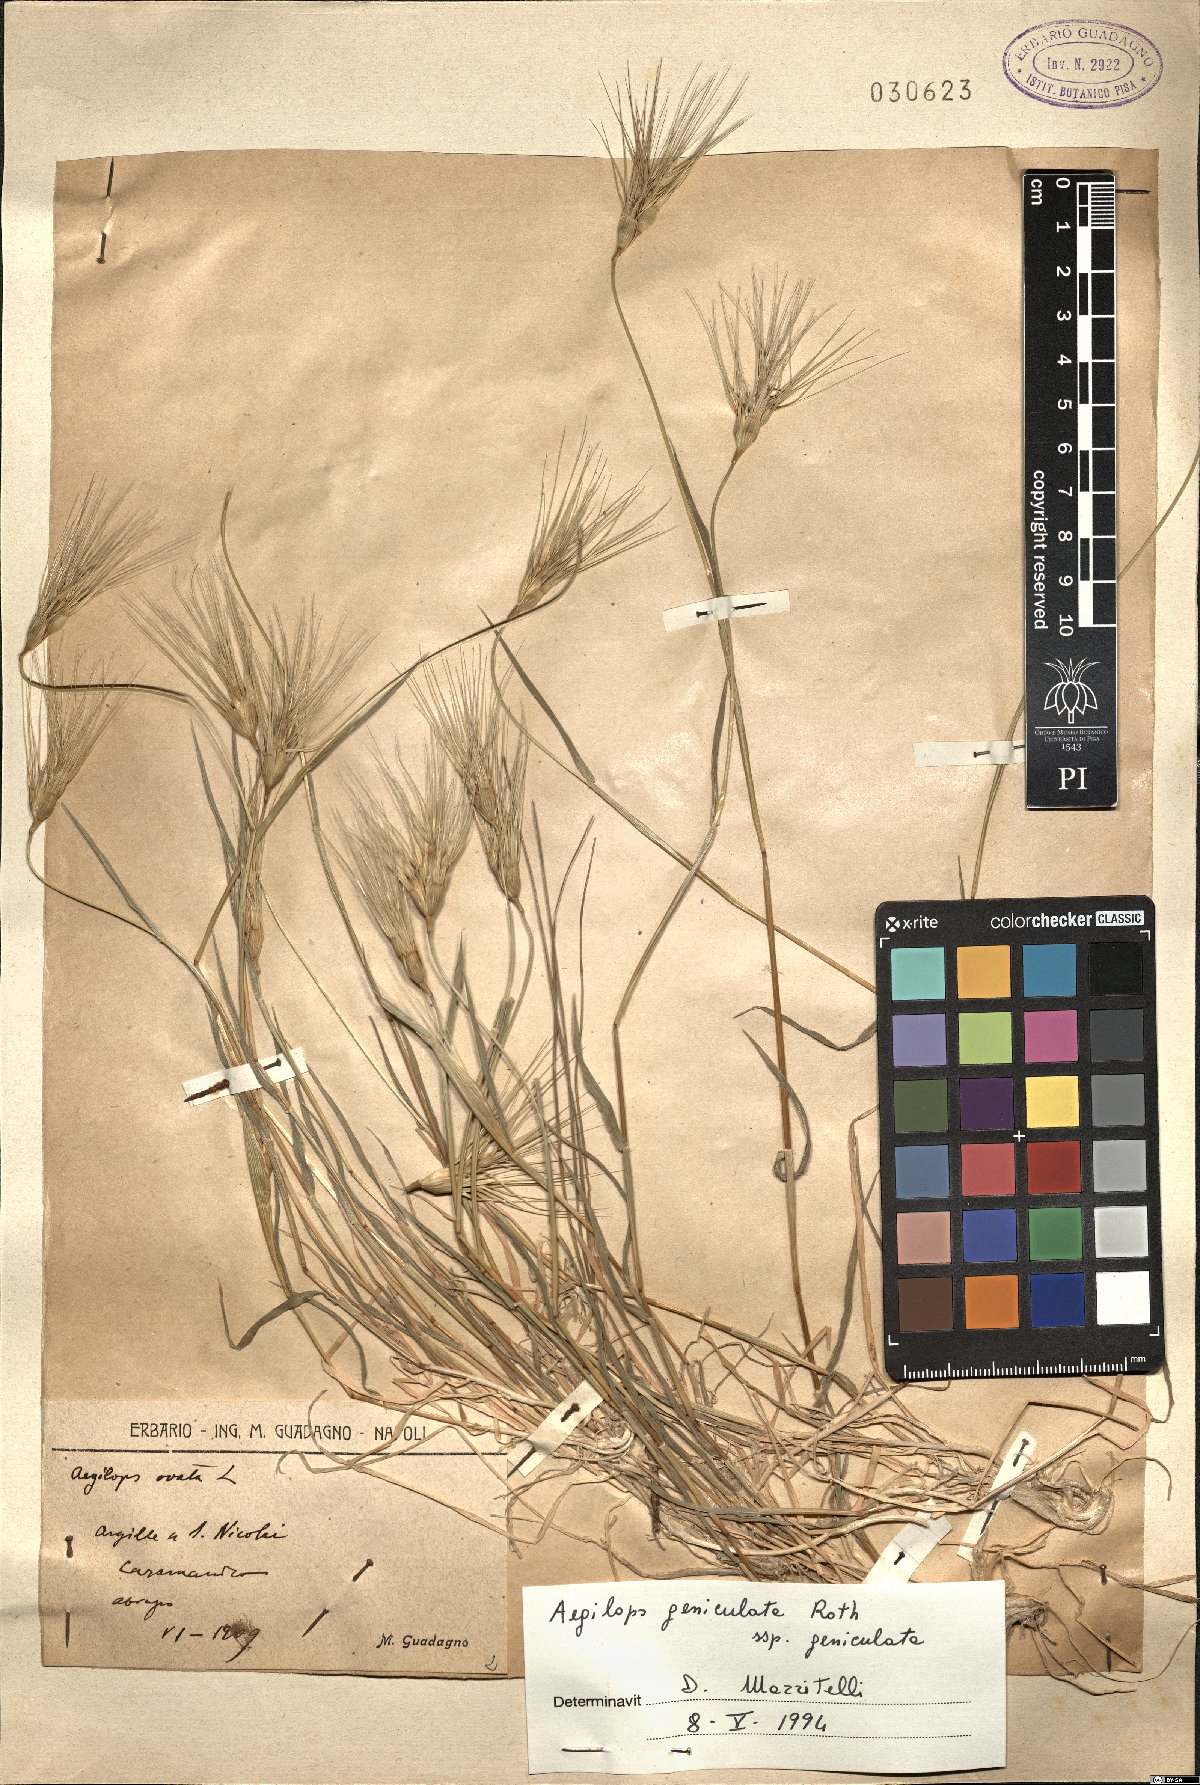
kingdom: Plantae
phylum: Tracheophyta
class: Liliopsida
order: Poales
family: Poaceae
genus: Aegilops
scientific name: Aegilops geniculata
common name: Ovate goat grass
